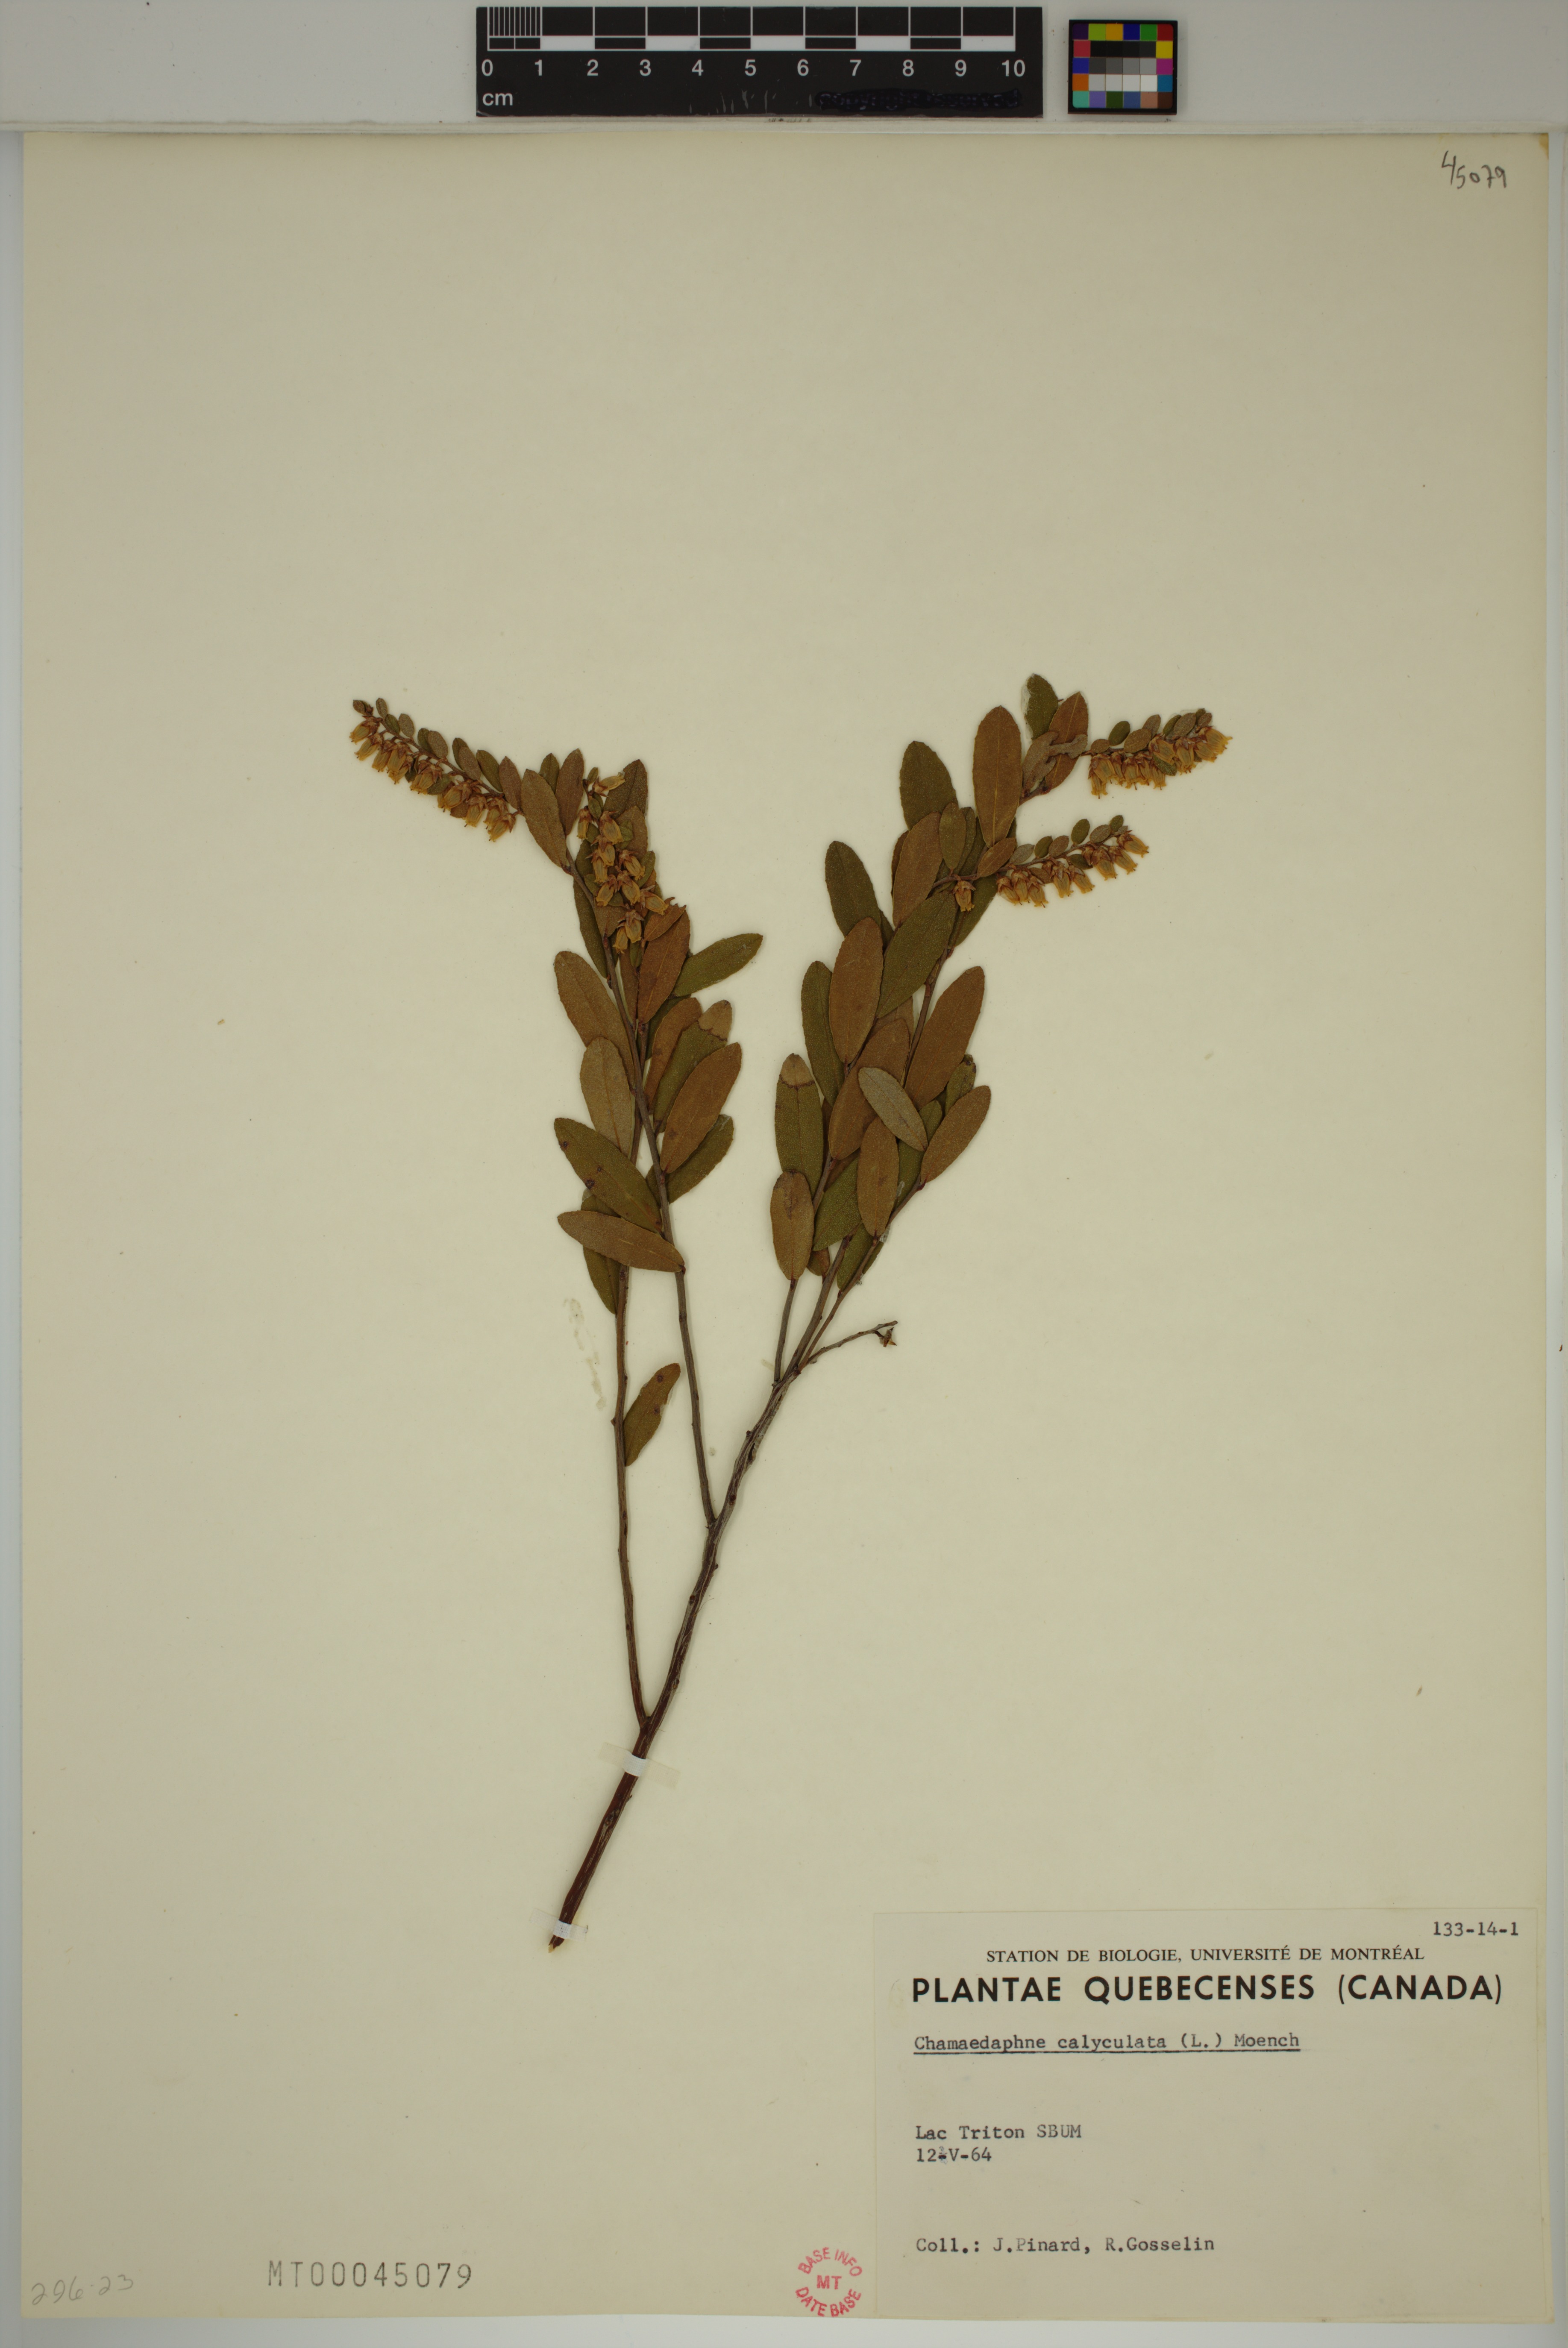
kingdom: Plantae
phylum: Tracheophyta
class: Magnoliopsida
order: Ericales
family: Ericaceae
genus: Chamaedaphne
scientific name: Chamaedaphne calyculata
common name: Leatherleaf
